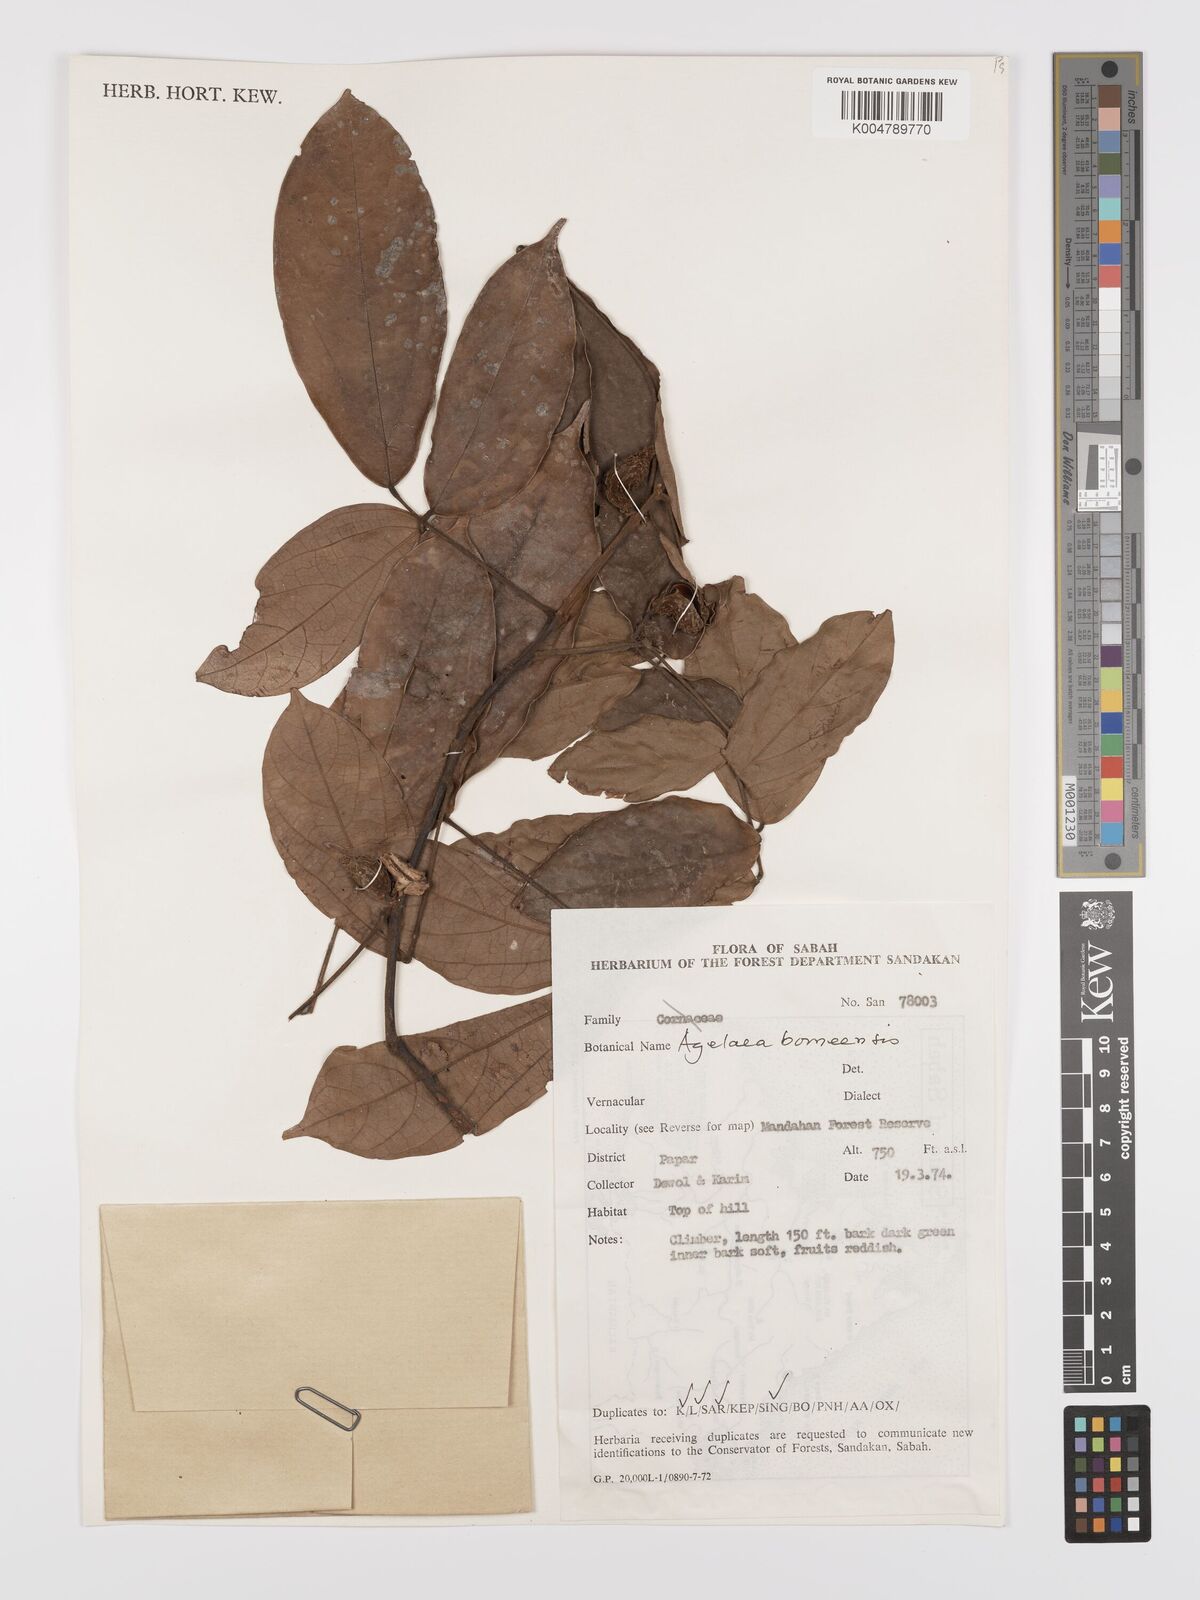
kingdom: Plantae
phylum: Tracheophyta
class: Magnoliopsida
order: Oxalidales
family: Connaraceae
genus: Agelaea
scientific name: Agelaea borneensis
